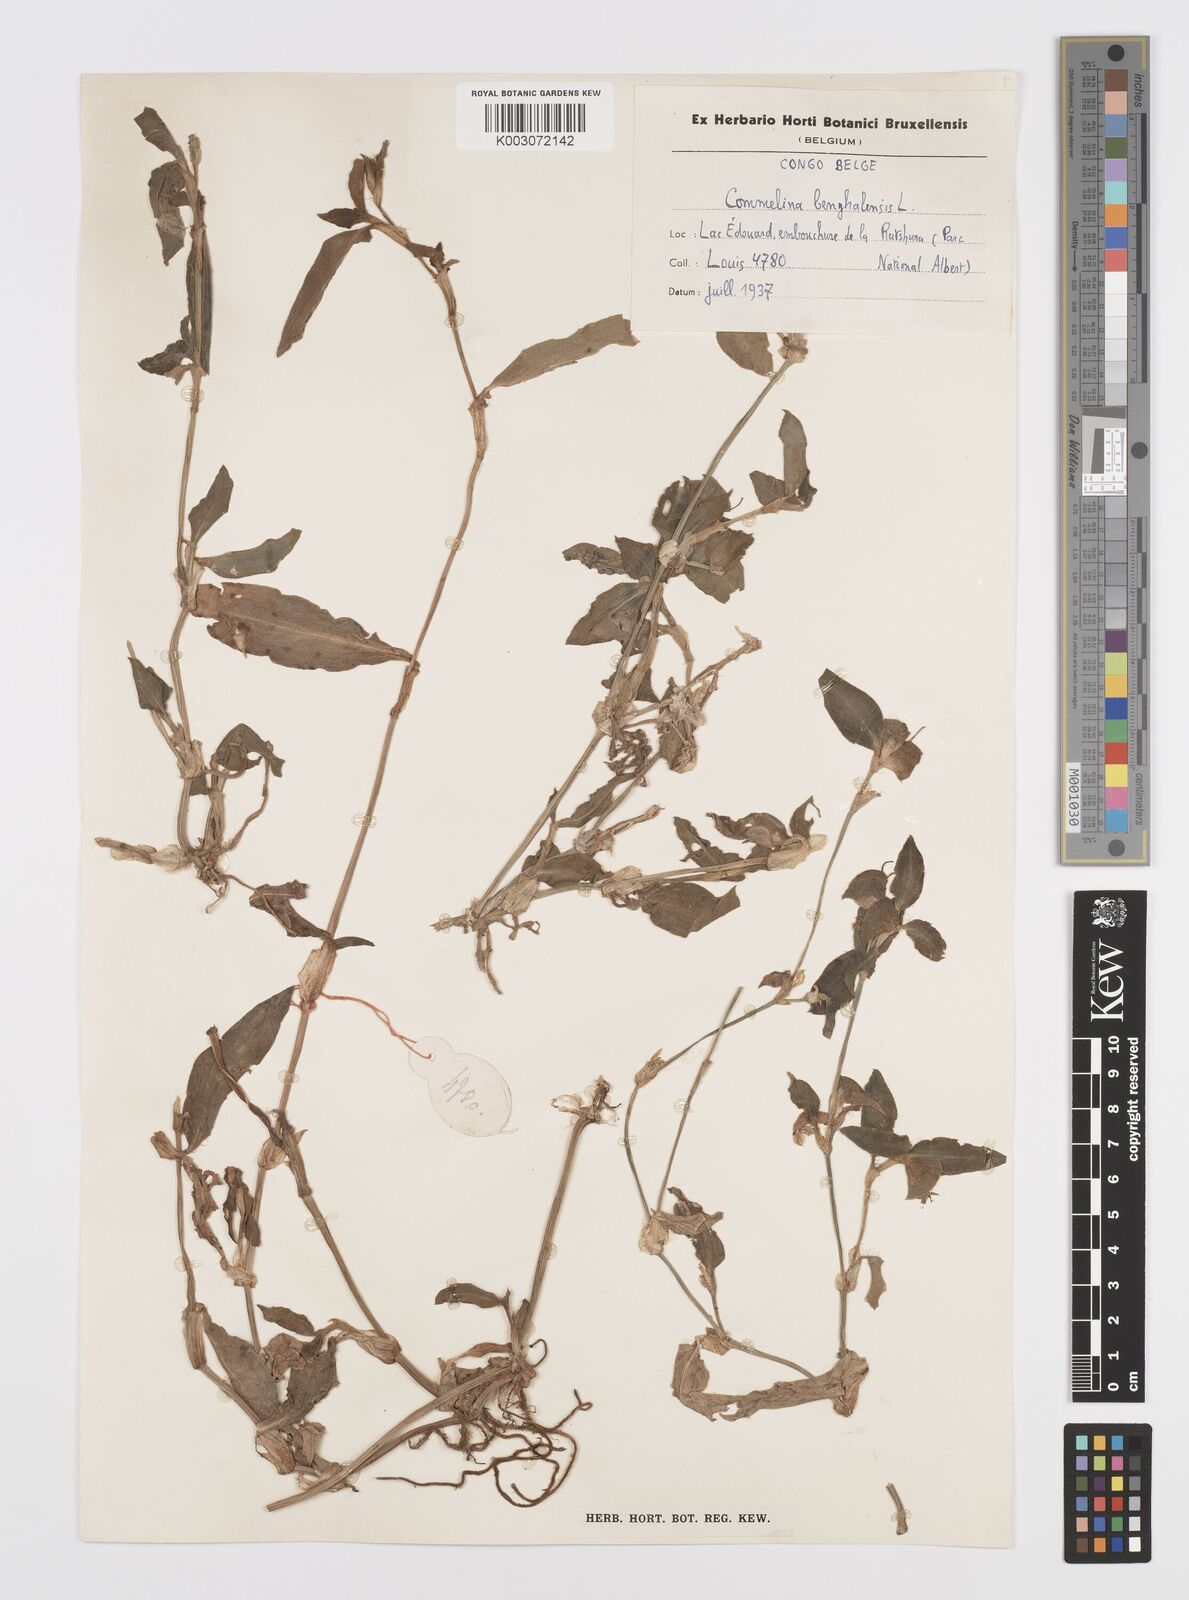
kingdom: Plantae
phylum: Tracheophyta
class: Liliopsida
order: Commelinales
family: Commelinaceae
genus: Commelina
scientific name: Commelina benghalensis
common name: Jio
